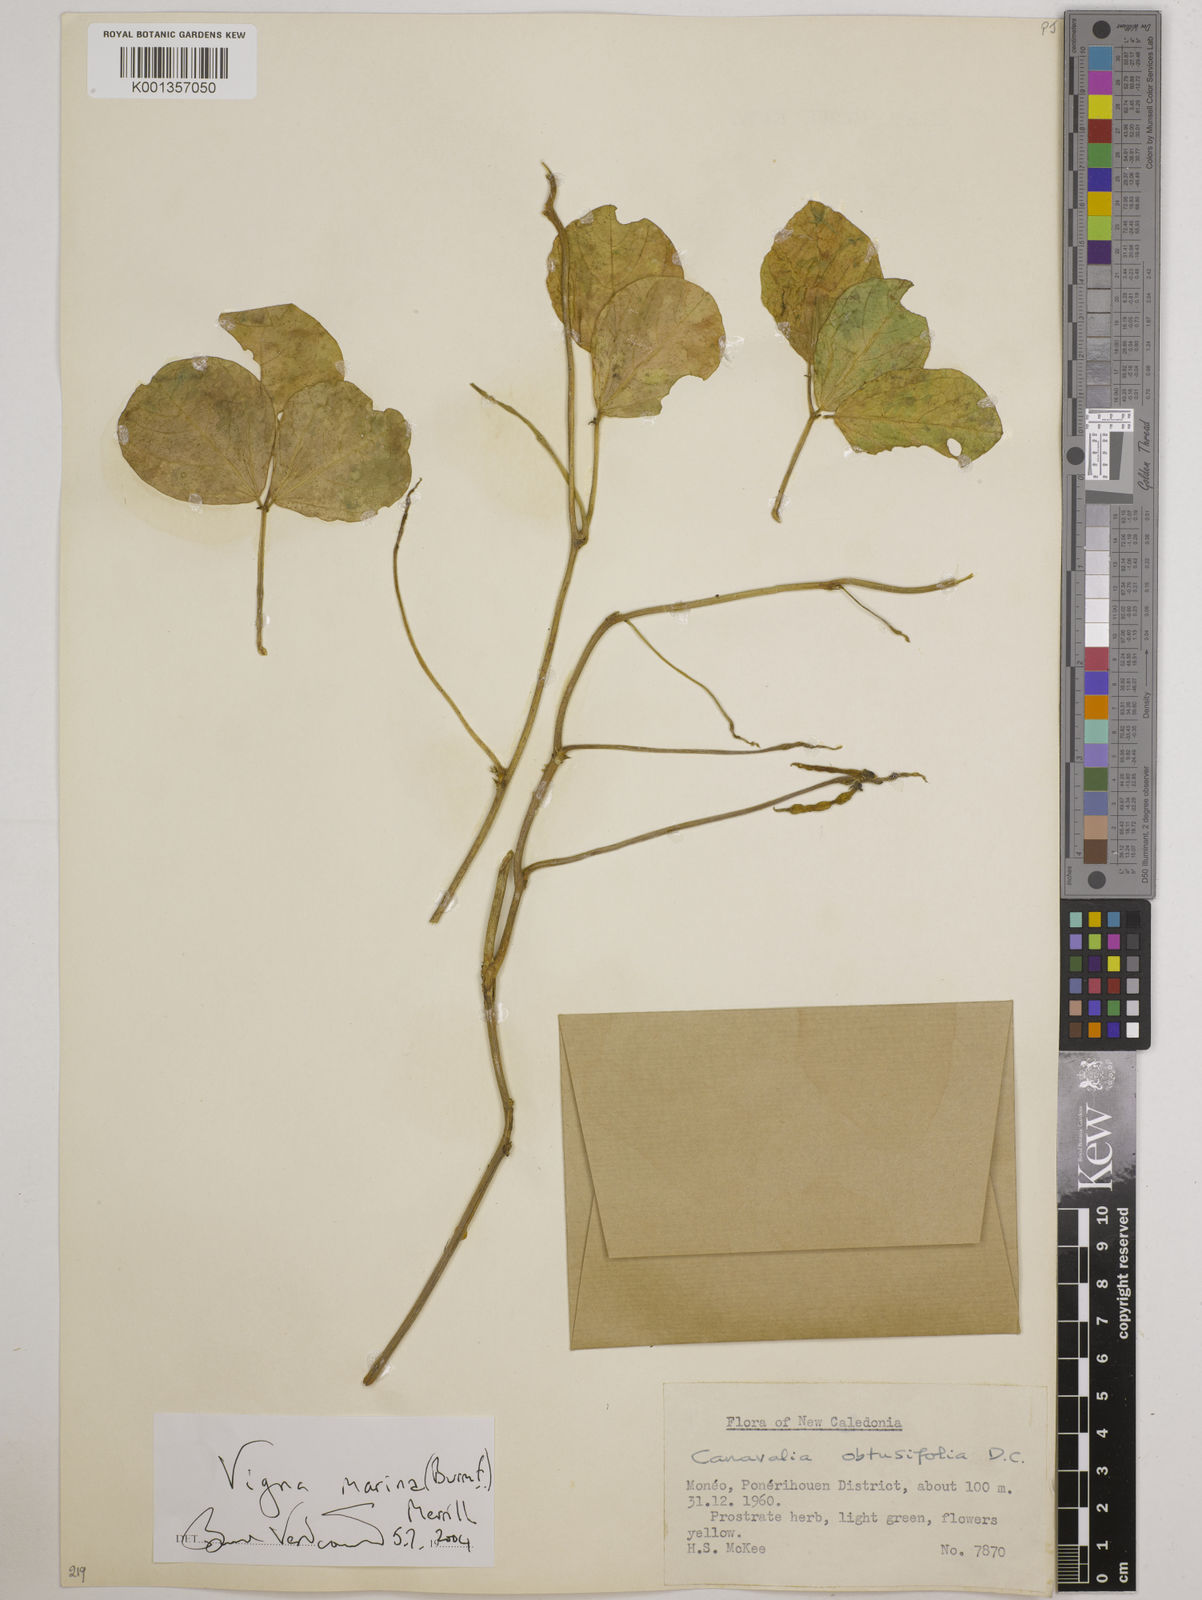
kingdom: Plantae
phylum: Tracheophyta
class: Magnoliopsida
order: Fabales
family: Fabaceae
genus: Vigna
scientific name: Vigna marina
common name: Dune-bean
